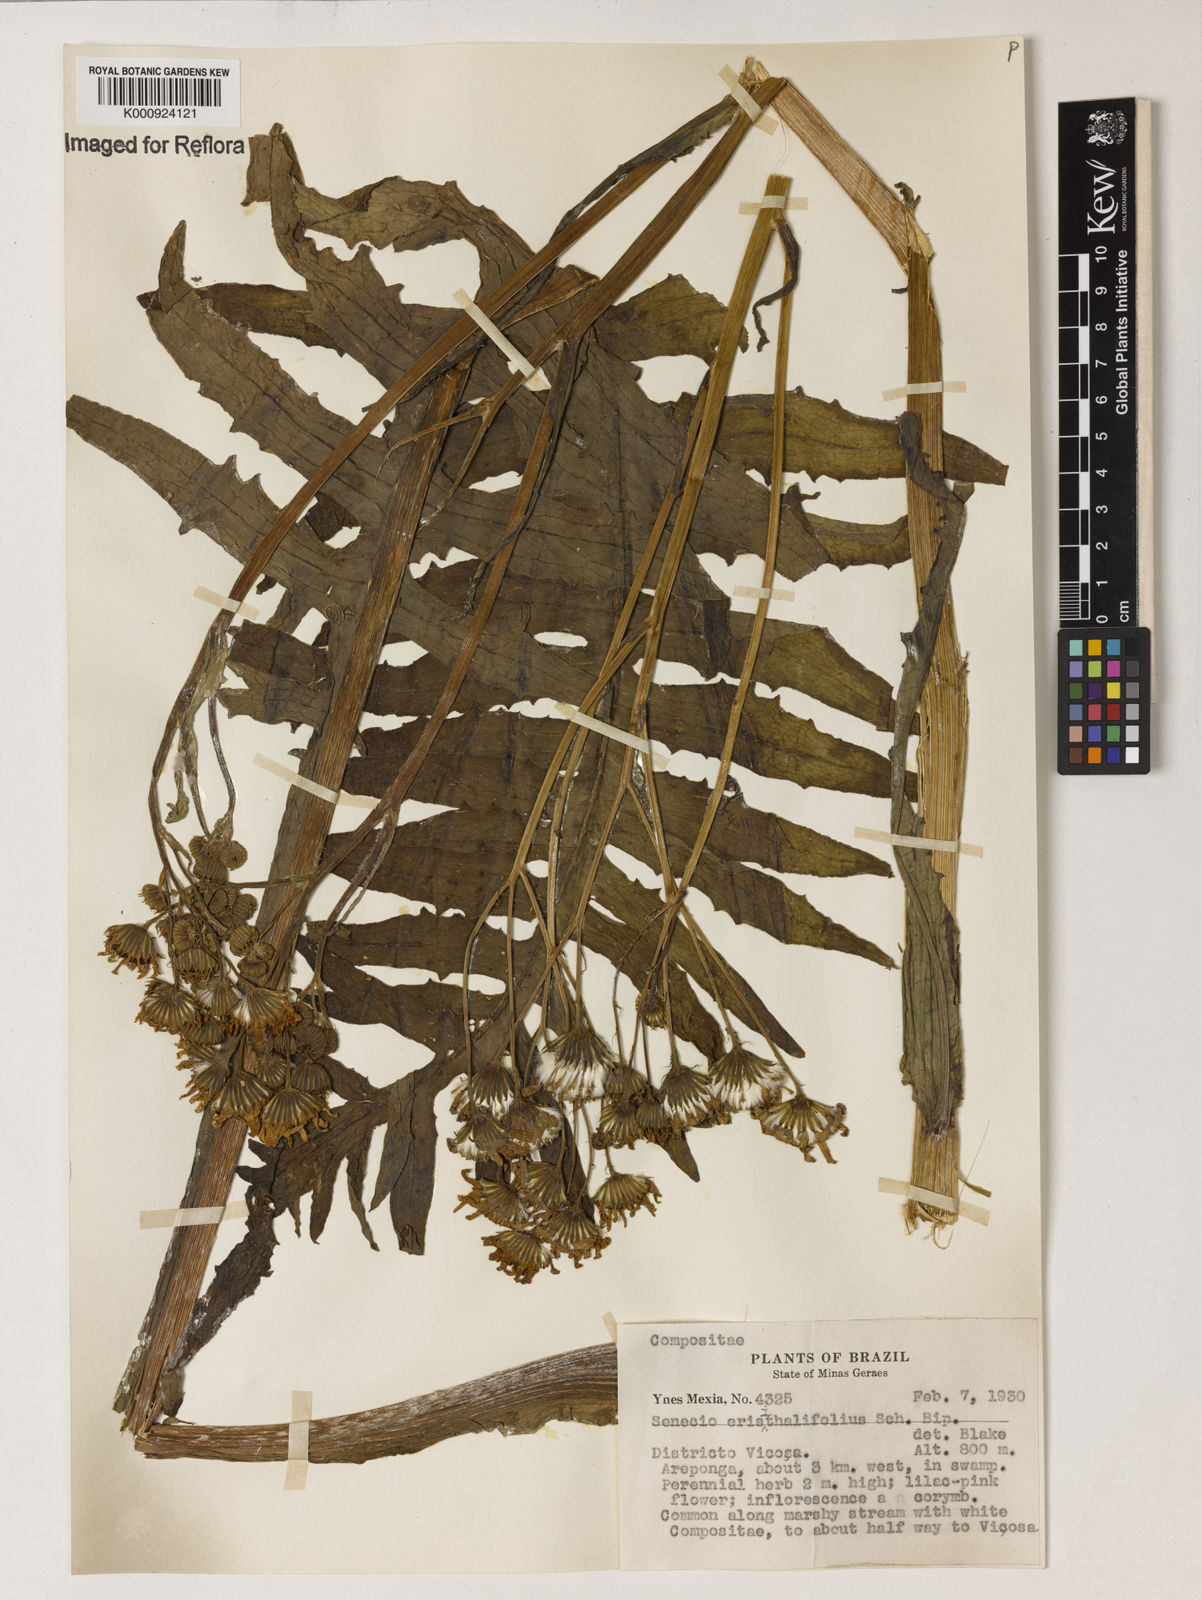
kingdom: Plantae
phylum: Tracheophyta
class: Magnoliopsida
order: Asterales
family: Asteraceae
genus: Senecio
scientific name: Senecio erisithalifolius
